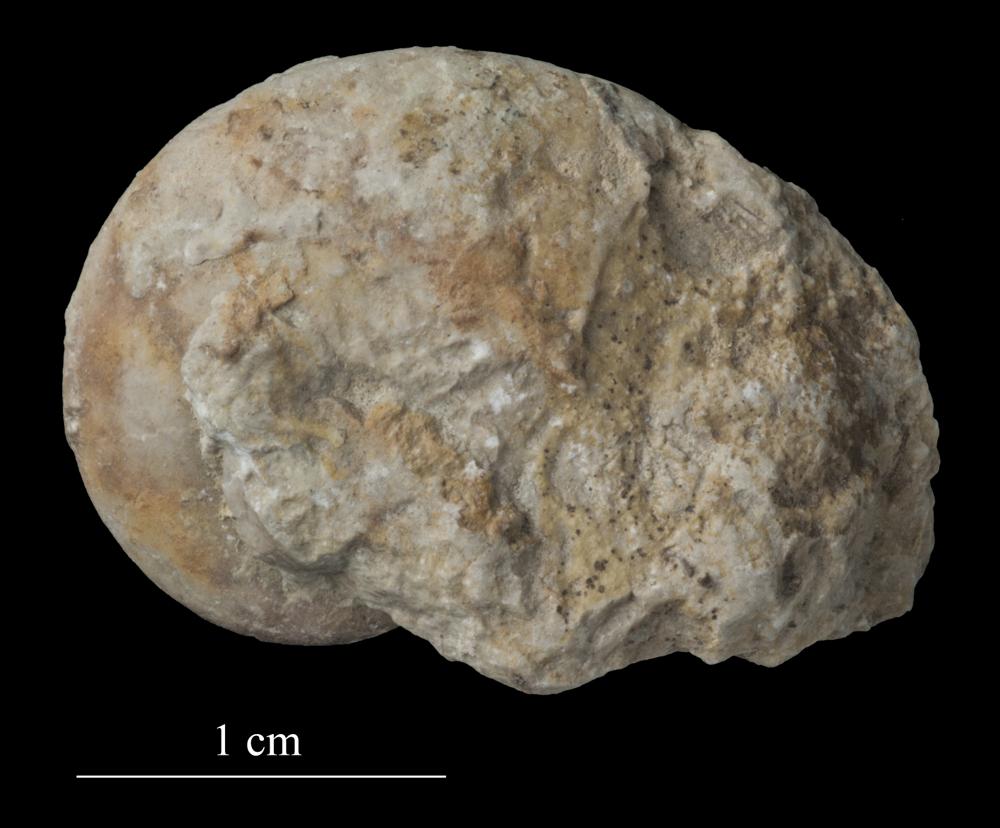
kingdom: Animalia
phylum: Mollusca
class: Gastropoda
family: Bellerophontidae
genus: Bellerophon
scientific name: Bellerophon
